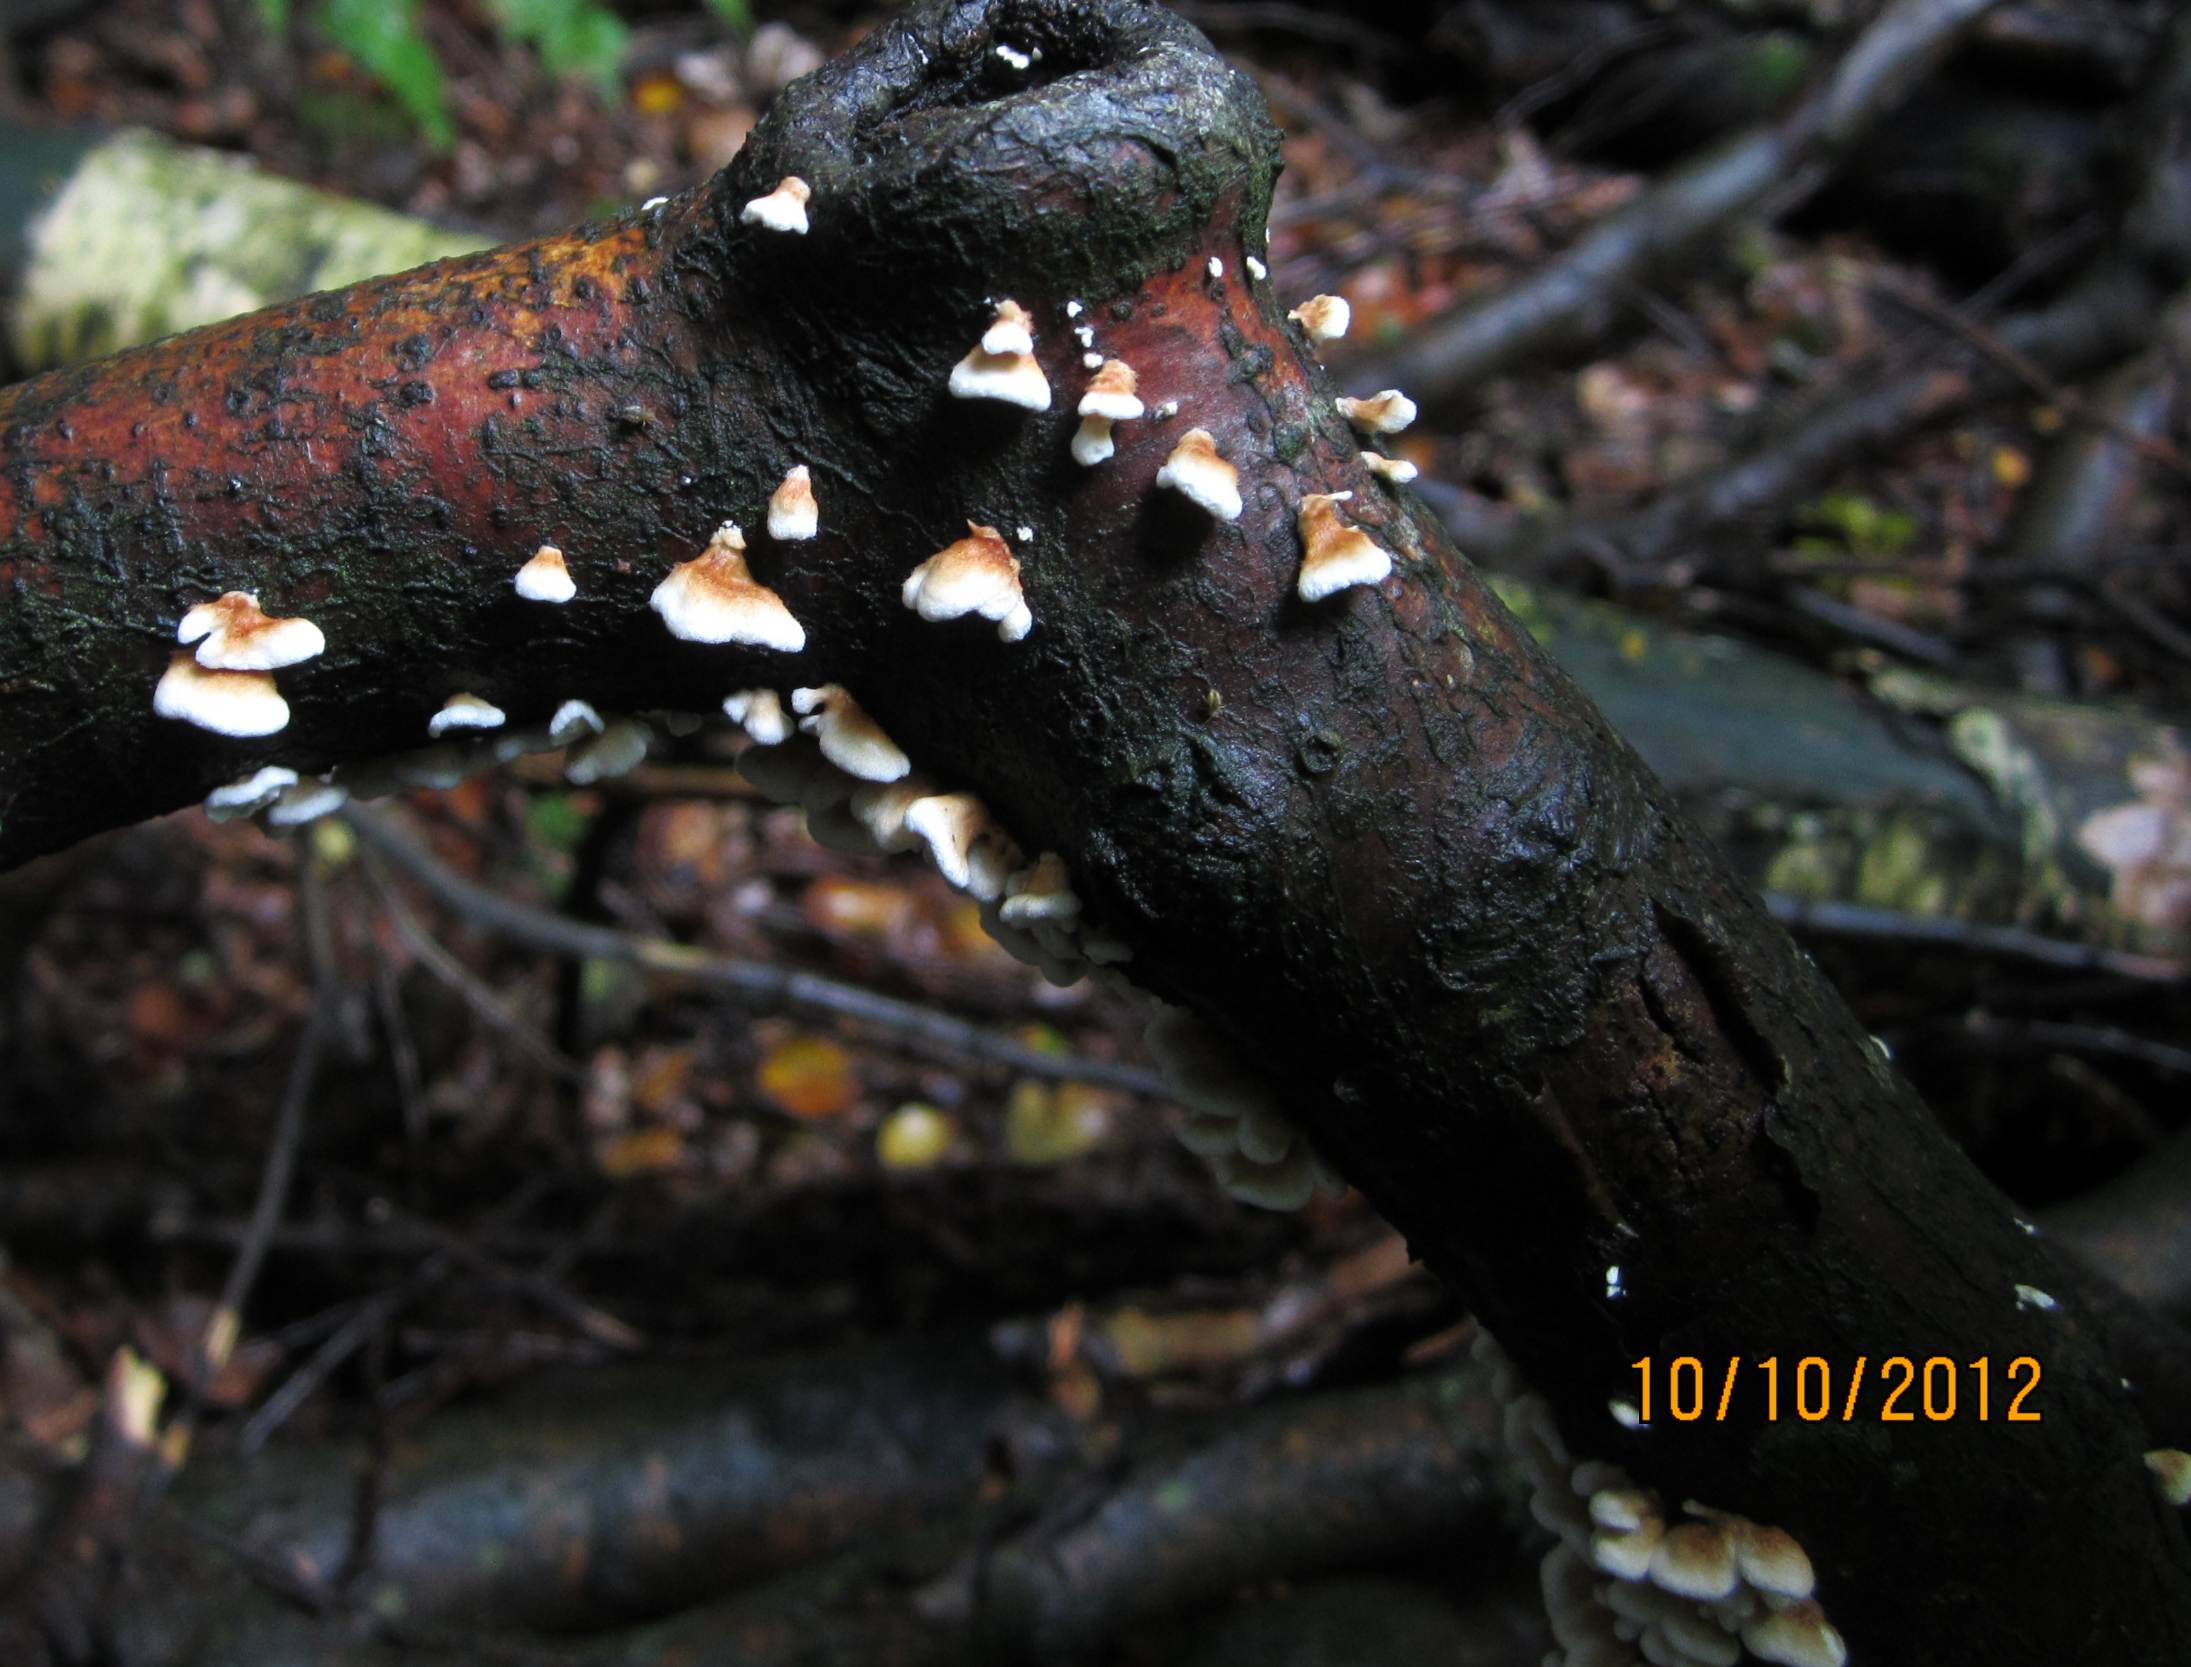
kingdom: Fungi
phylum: Basidiomycota
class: Agaricomycetes
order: Amylocorticiales
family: Amylocorticiaceae
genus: Plicaturopsis
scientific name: Plicaturopsis crispa
